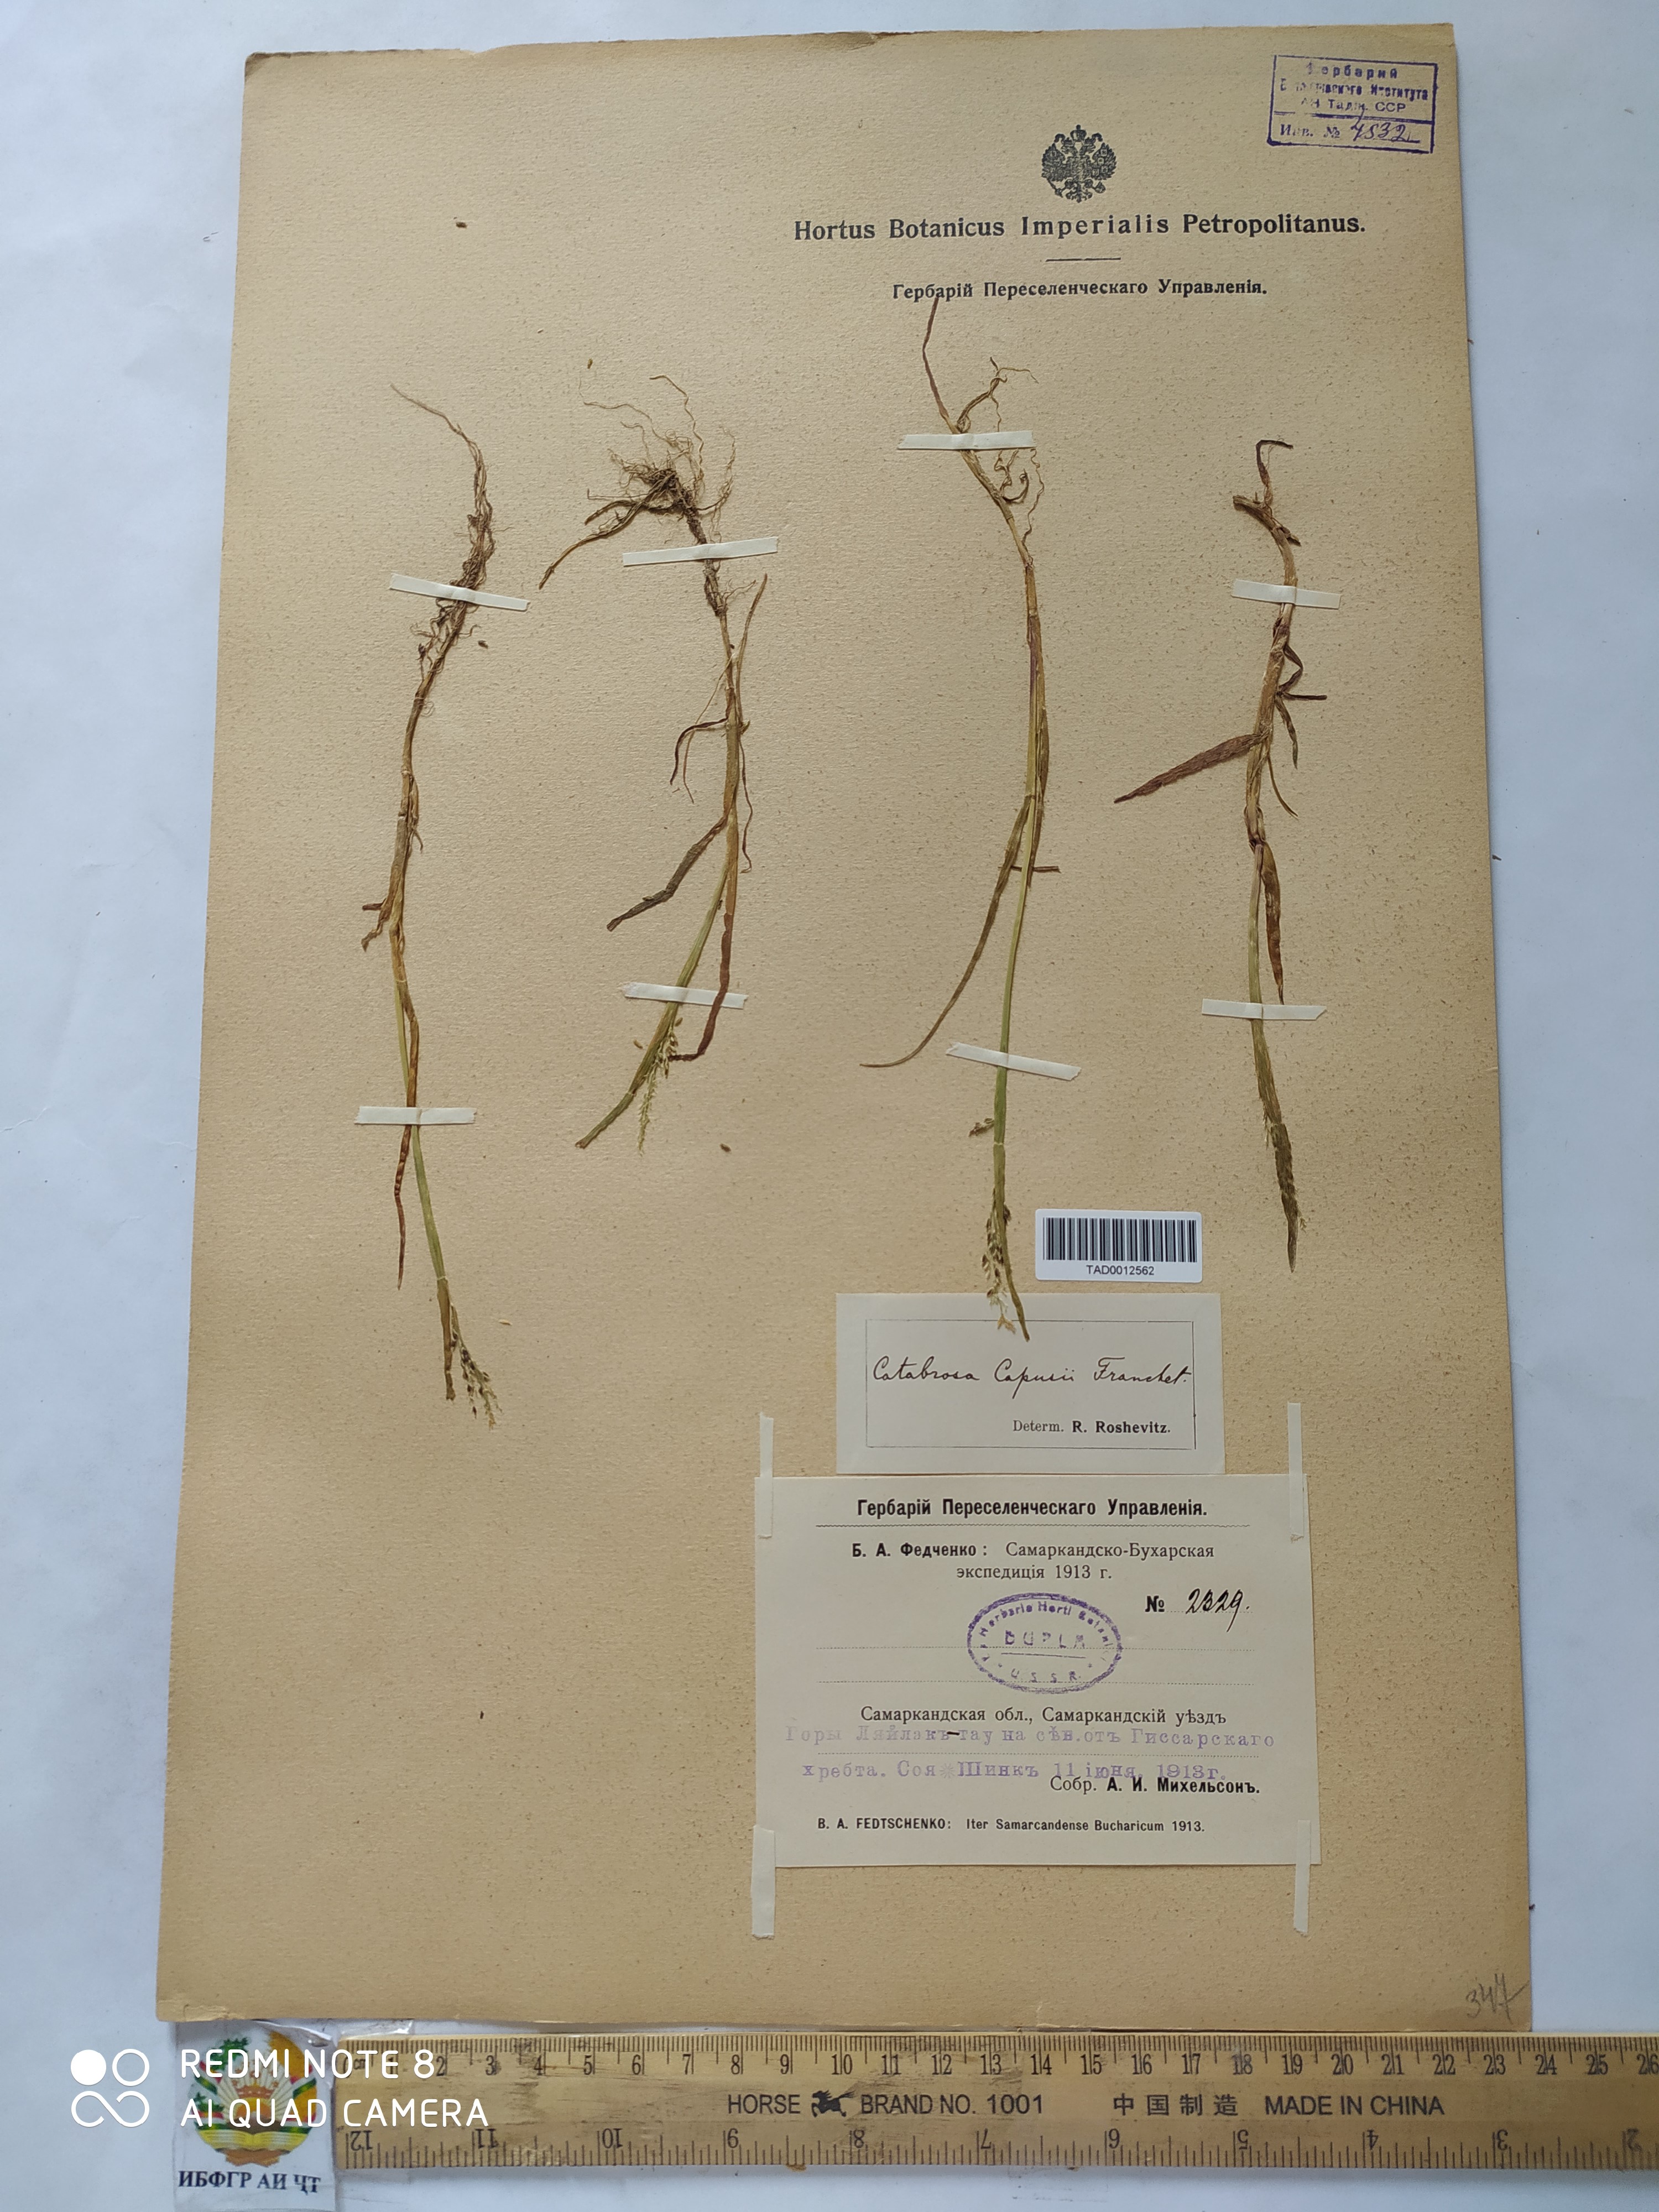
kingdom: Plantae
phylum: Tracheophyta
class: Liliopsida
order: Poales
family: Poaceae
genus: Catabrosa
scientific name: Catabrosa aquatica
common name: Whorl-grass
